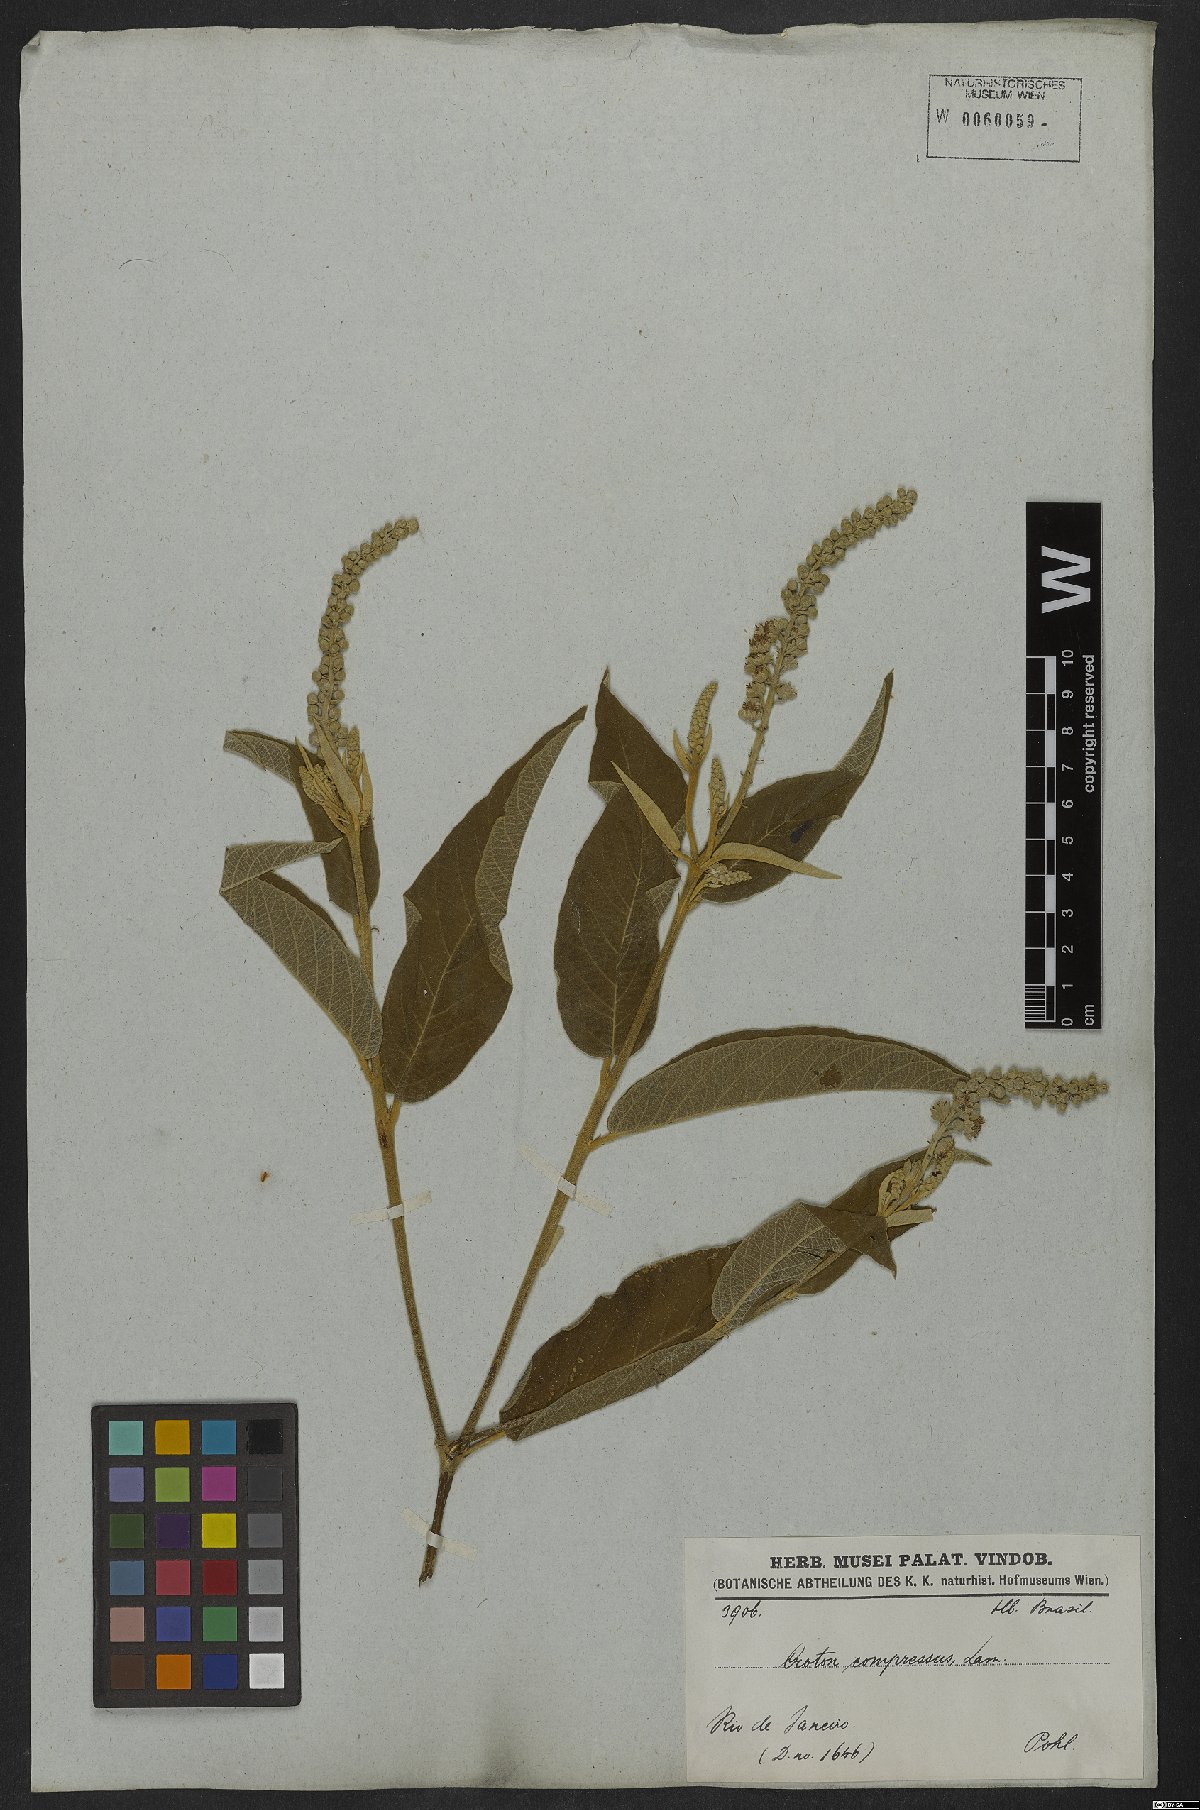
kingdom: Plantae
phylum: Tracheophyta
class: Magnoliopsida
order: Malpighiales
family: Euphorbiaceae
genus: Croton
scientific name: Croton compressus
